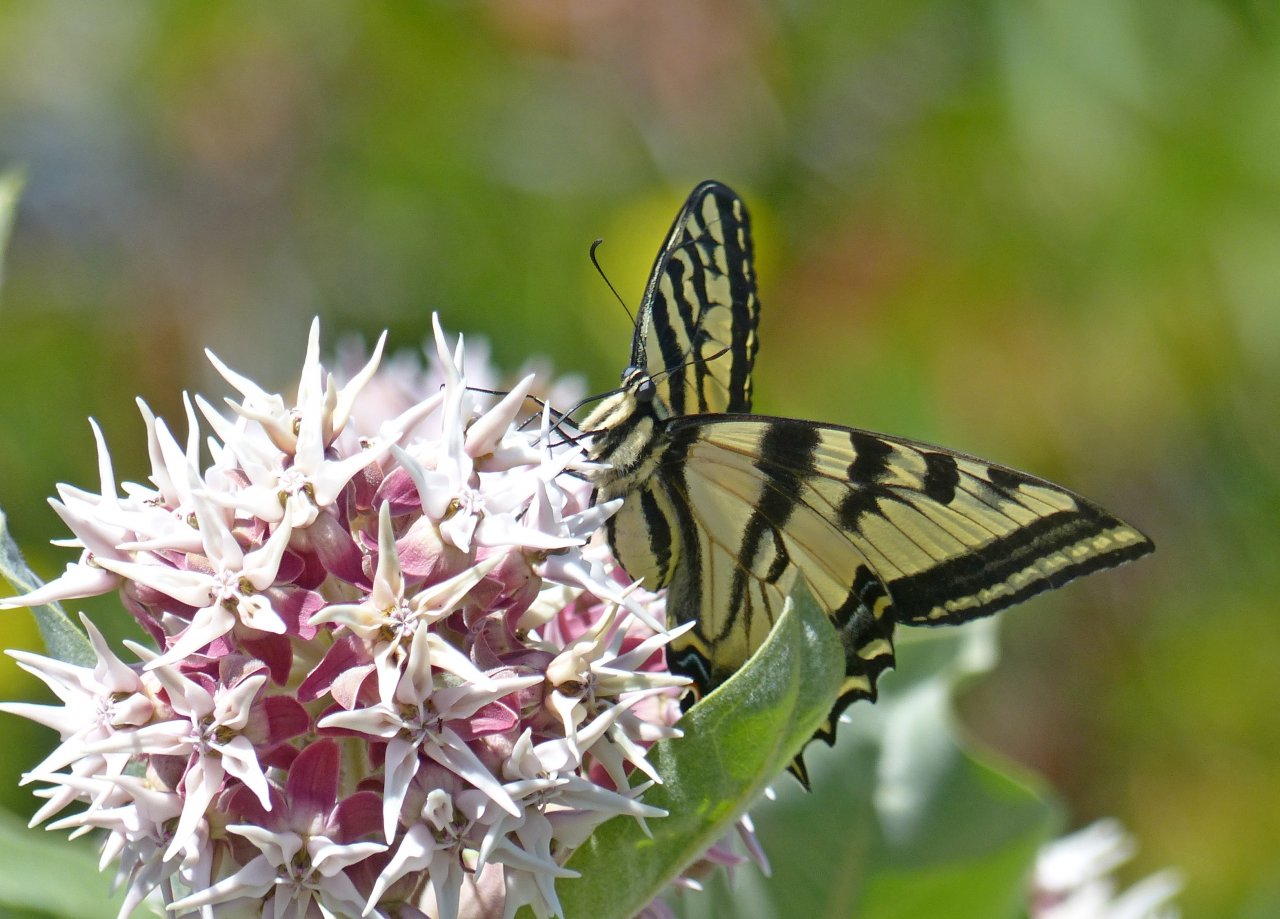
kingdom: Animalia
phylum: Arthropoda
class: Insecta
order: Lepidoptera
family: Papilionidae
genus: Pterourus
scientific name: Pterourus rutulus
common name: Western Tiger Swallowtail
